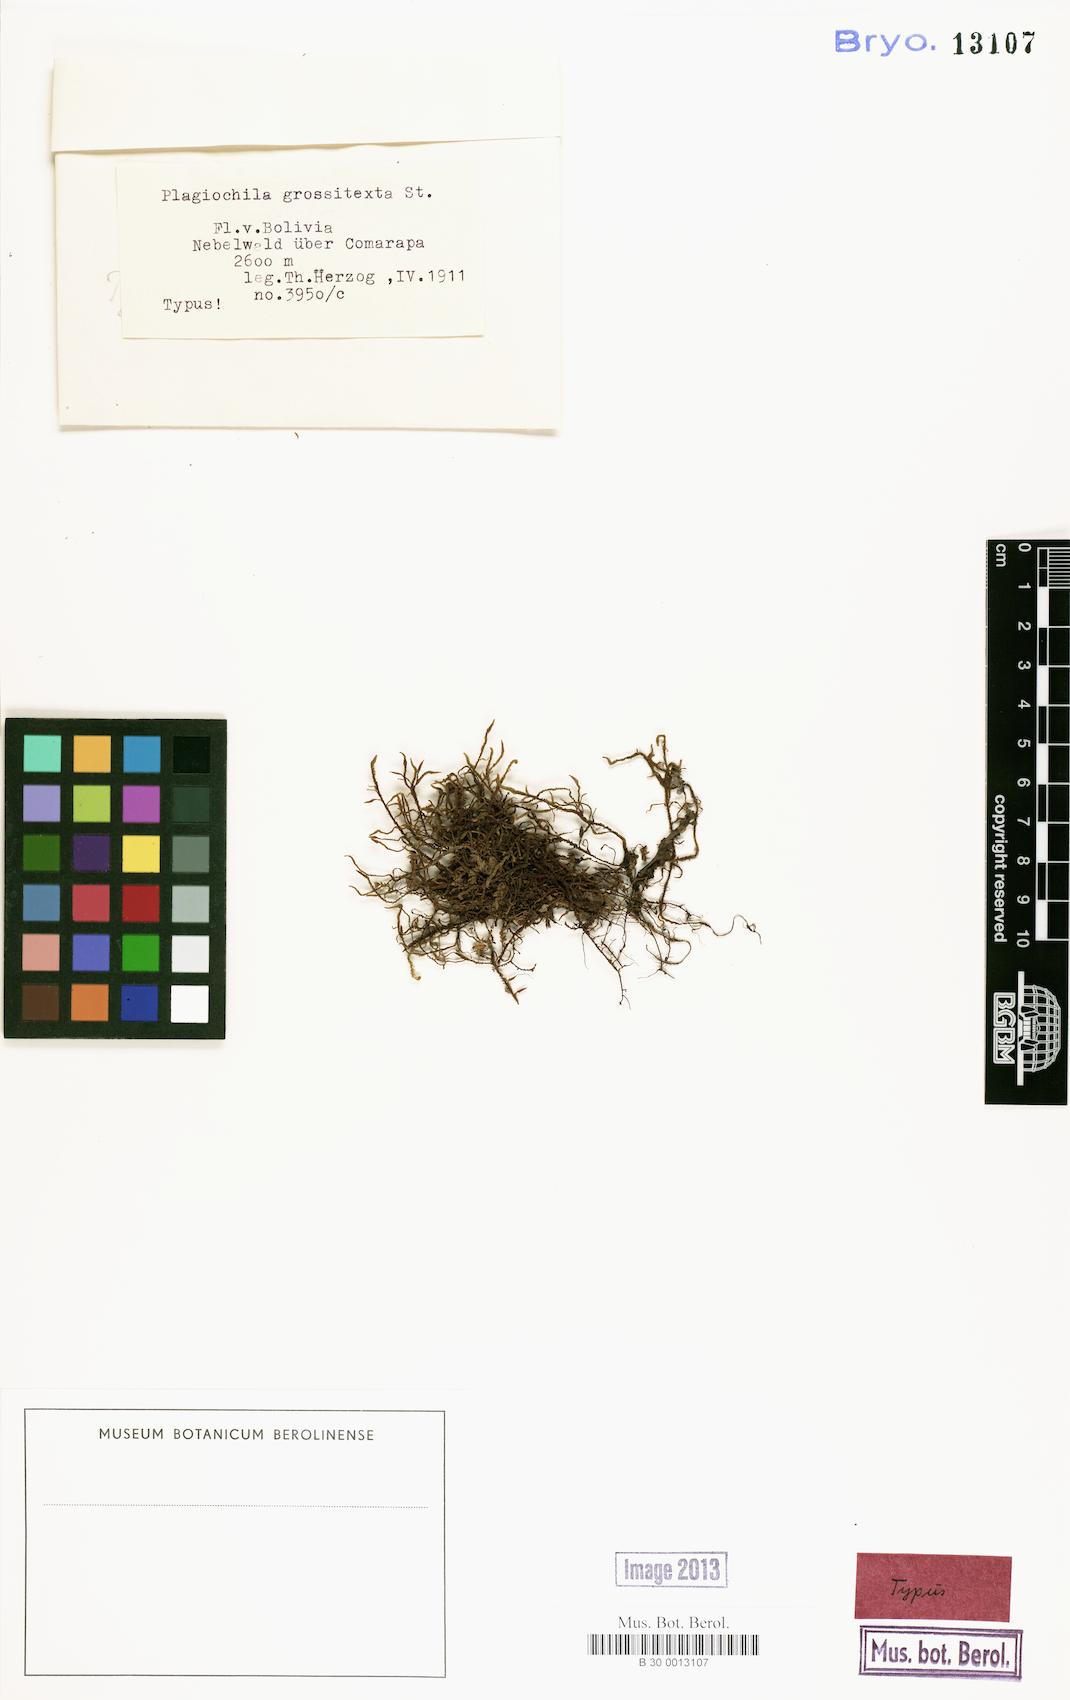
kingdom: Plantae
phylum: Marchantiophyta
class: Jungermanniopsida
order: Jungermanniales
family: Plagiochilaceae
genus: Plagiochila
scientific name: Plagiochila bifaria
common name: Killarney featherwort
